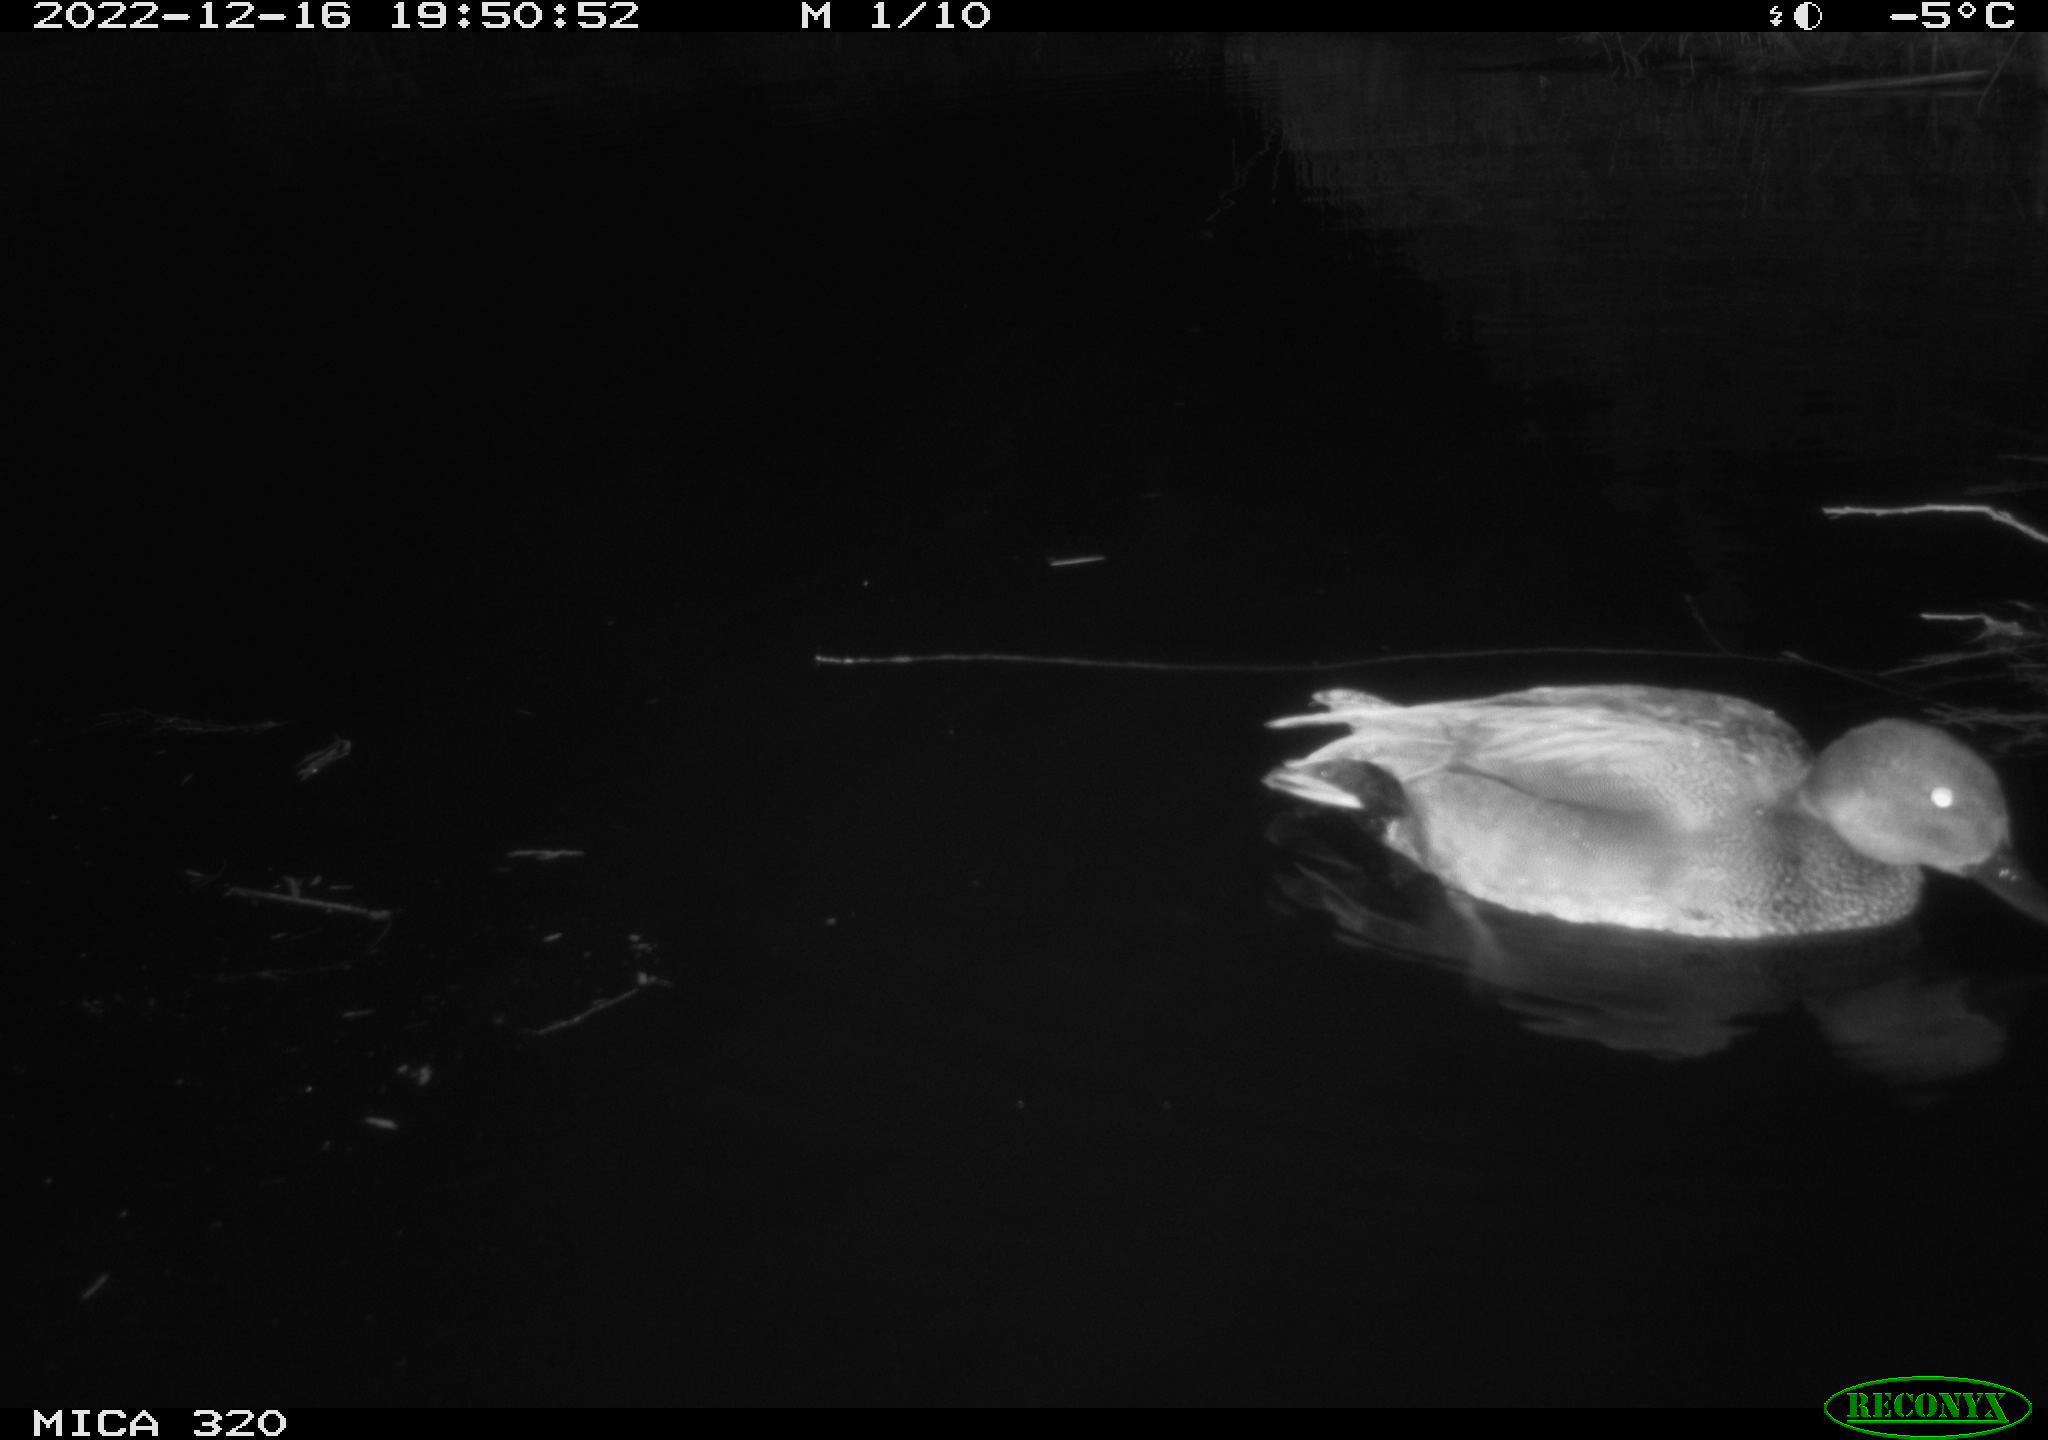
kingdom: Animalia
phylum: Chordata
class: Aves
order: Anseriformes
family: Anatidae
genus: Anas
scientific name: Anas
